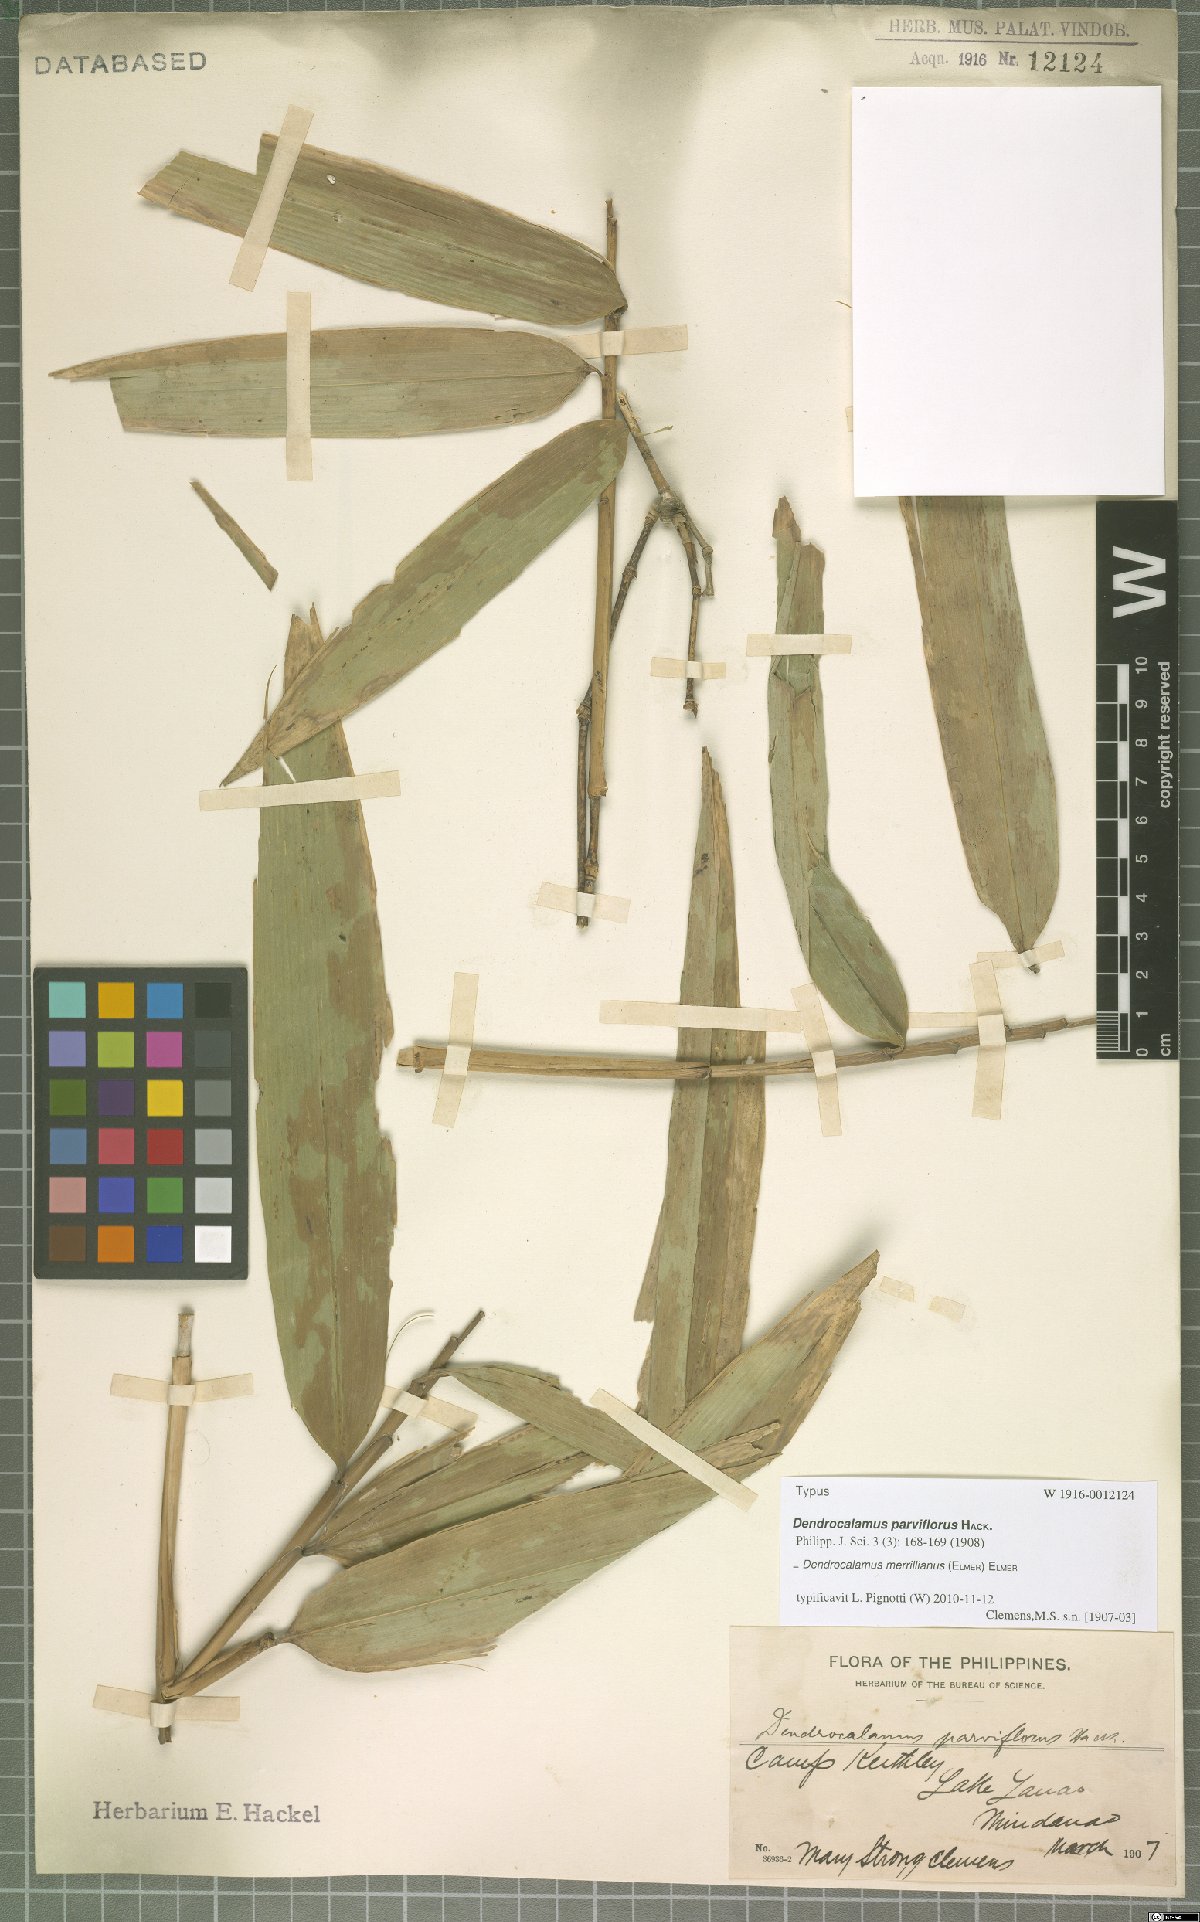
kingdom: Plantae
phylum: Tracheophyta
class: Liliopsida
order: Poales
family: Poaceae
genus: Dendrocalamus
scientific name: Dendrocalamus merrillianus
